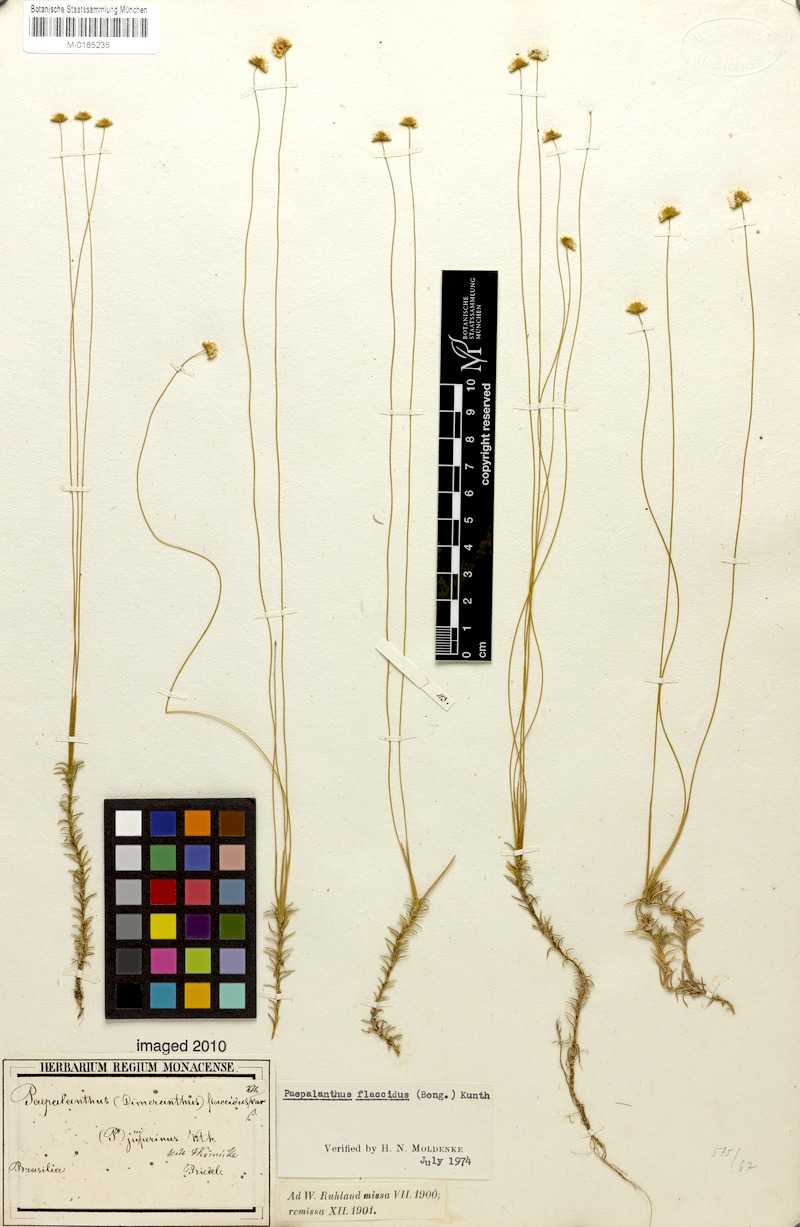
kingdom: Plantae
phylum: Tracheophyta
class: Liliopsida
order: Poales
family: Eriocaulaceae
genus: Paepalanthus
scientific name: Paepalanthus flaccidus
